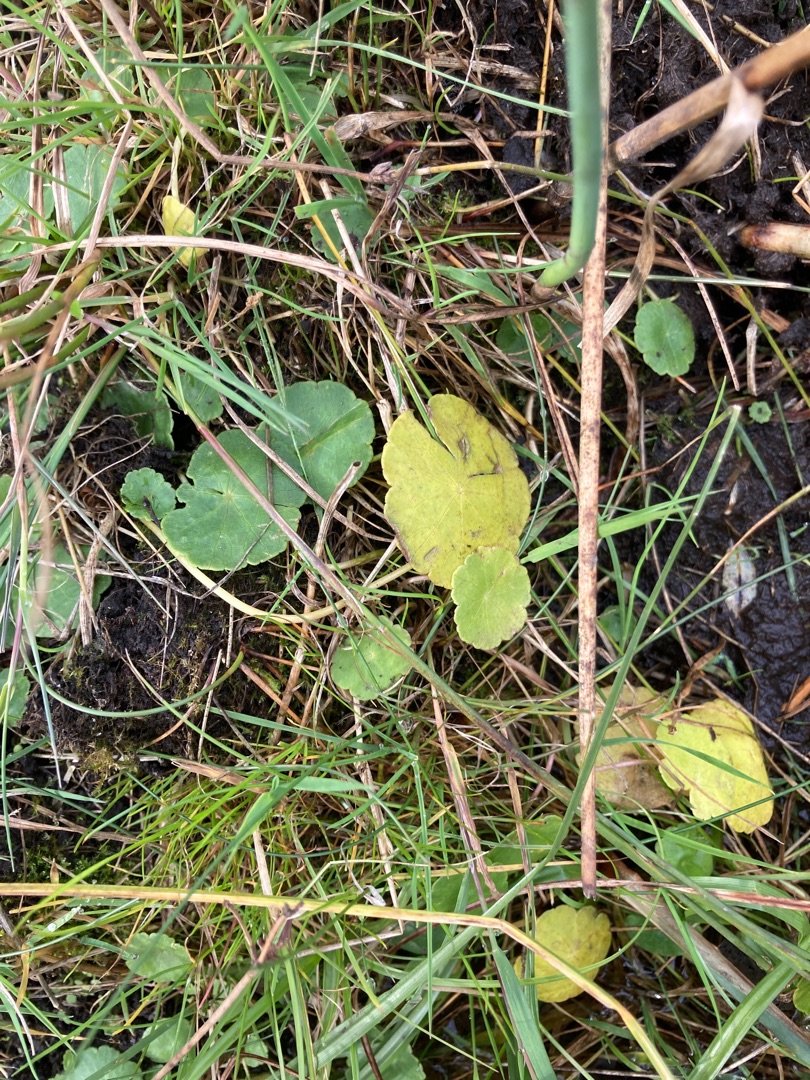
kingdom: Plantae
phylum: Tracheophyta
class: Magnoliopsida
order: Apiales
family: Araliaceae
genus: Hydrocotyle
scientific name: Hydrocotyle vulgaris
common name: Vandnavle
